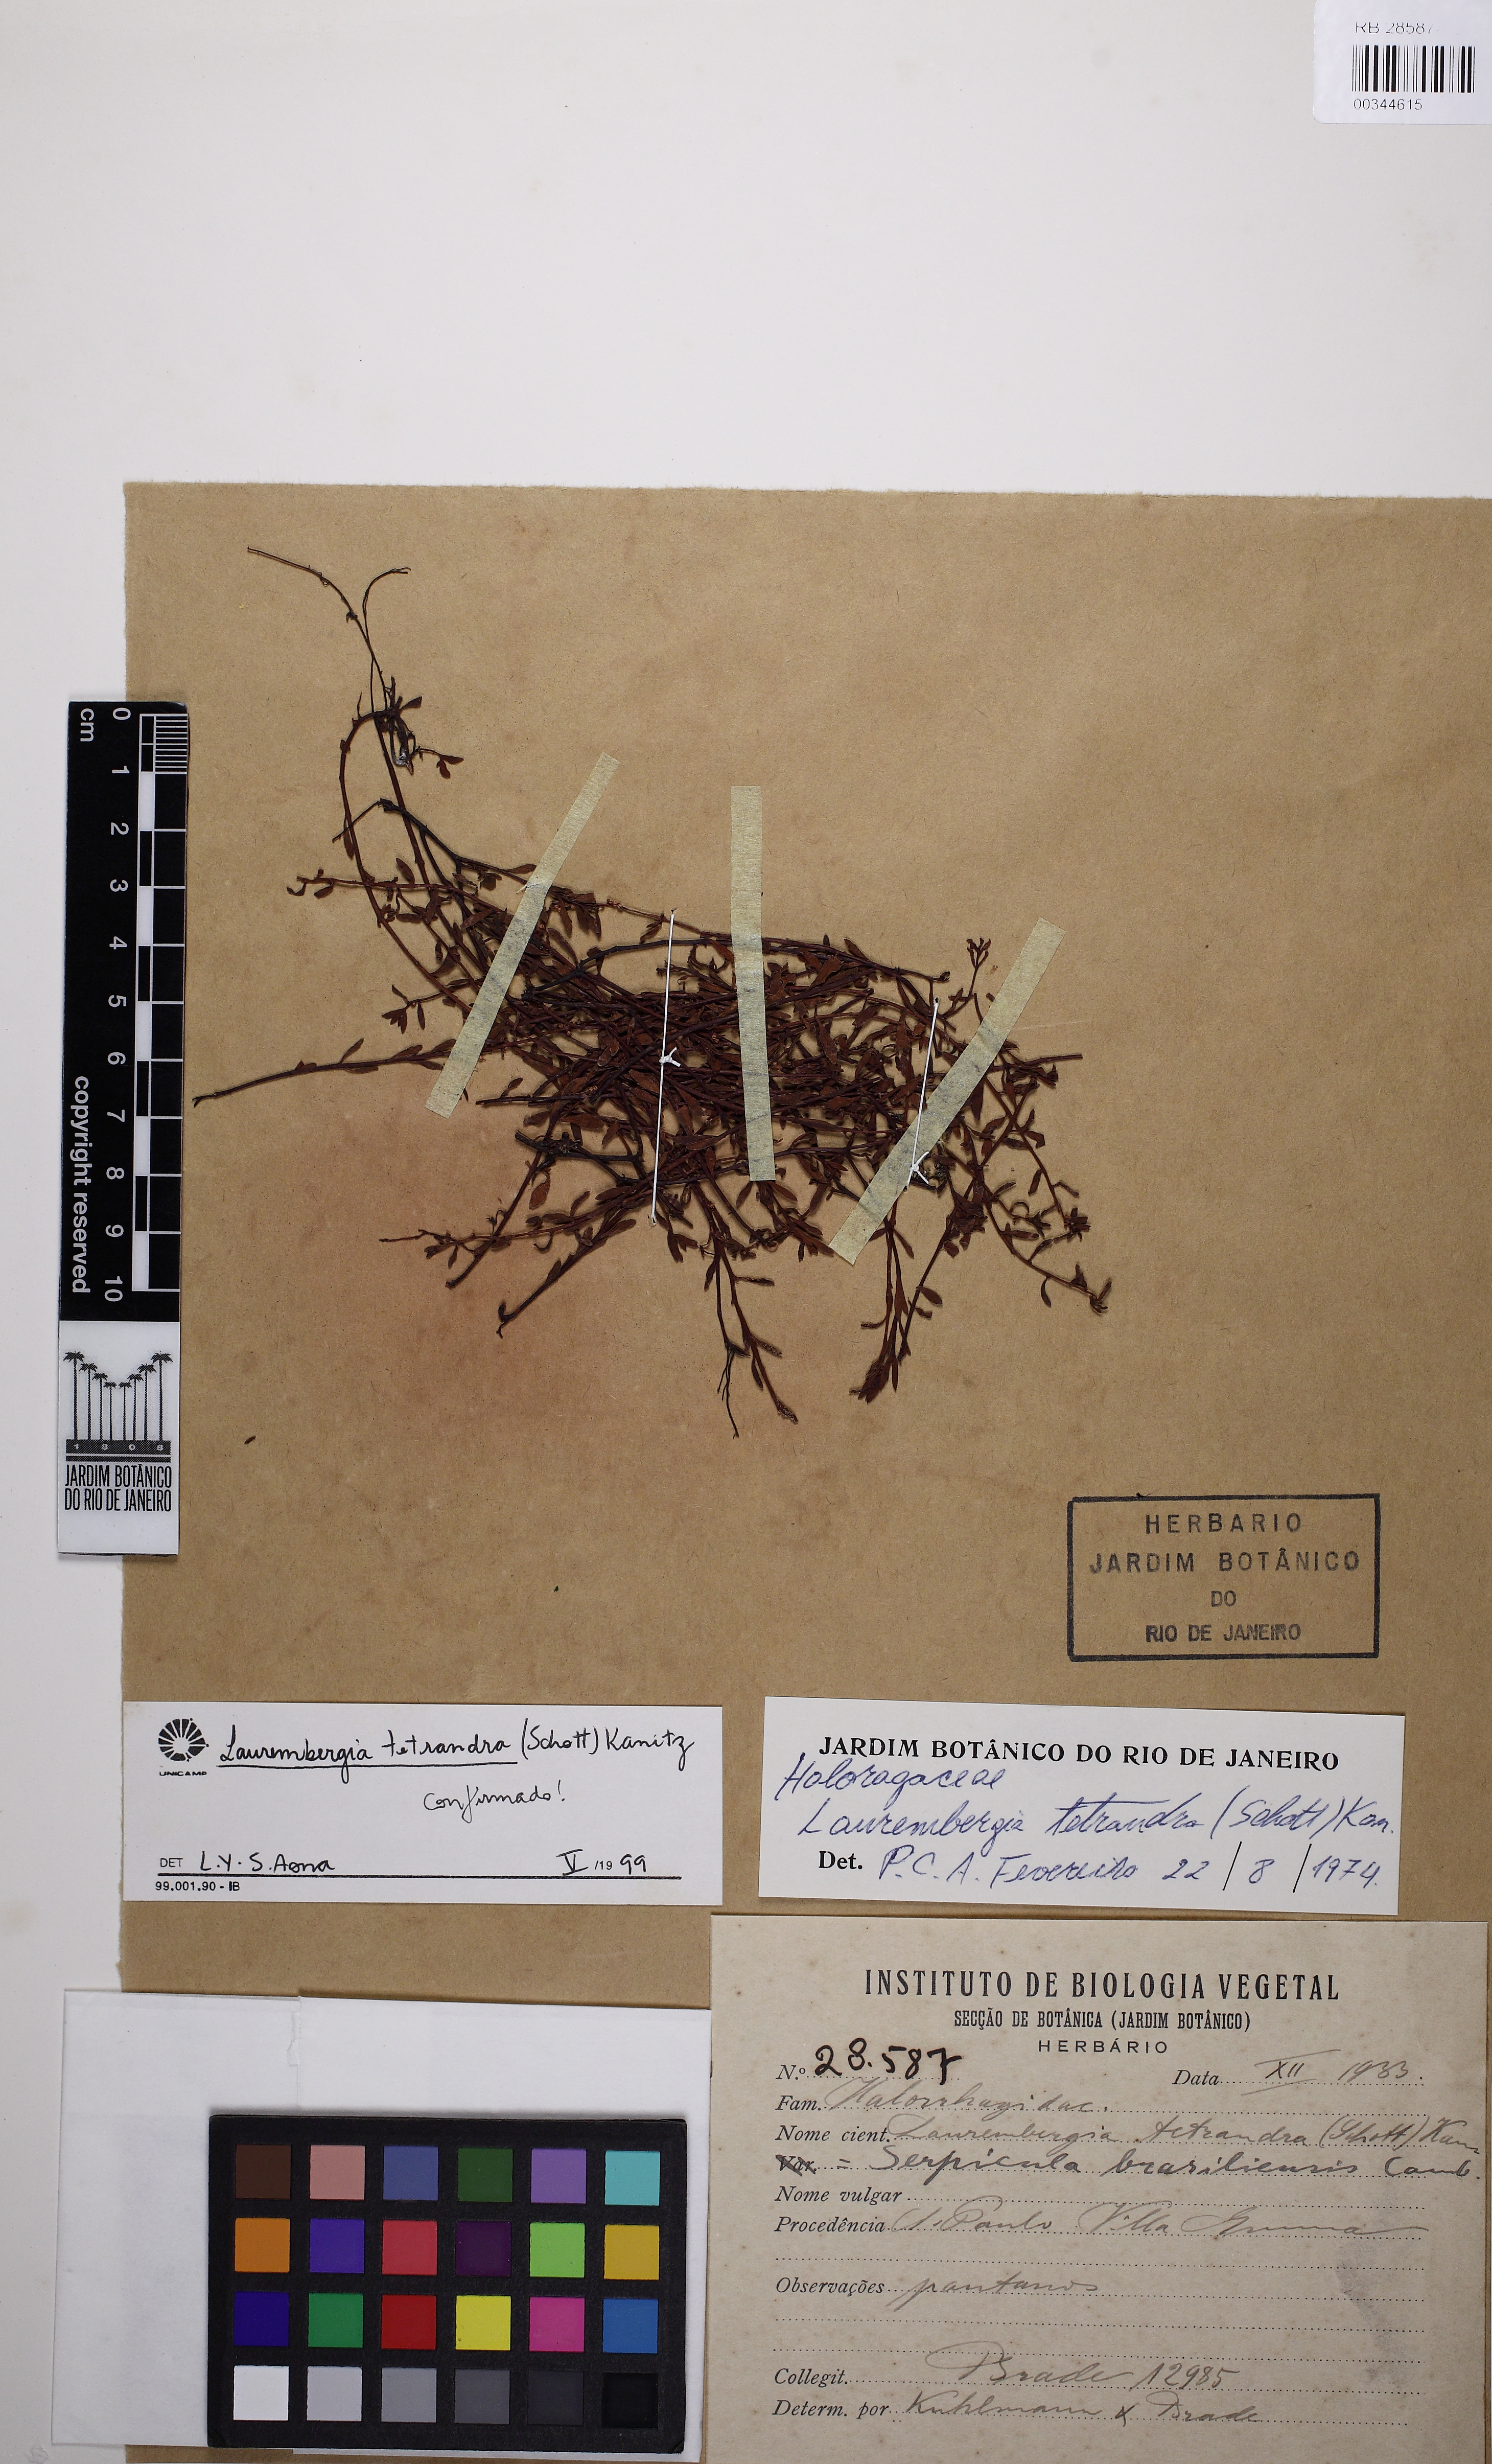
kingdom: Plantae
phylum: Tracheophyta
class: Magnoliopsida
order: Saxifragales
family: Haloragaceae
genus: Laurembergia
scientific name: Laurembergia tetrandra
